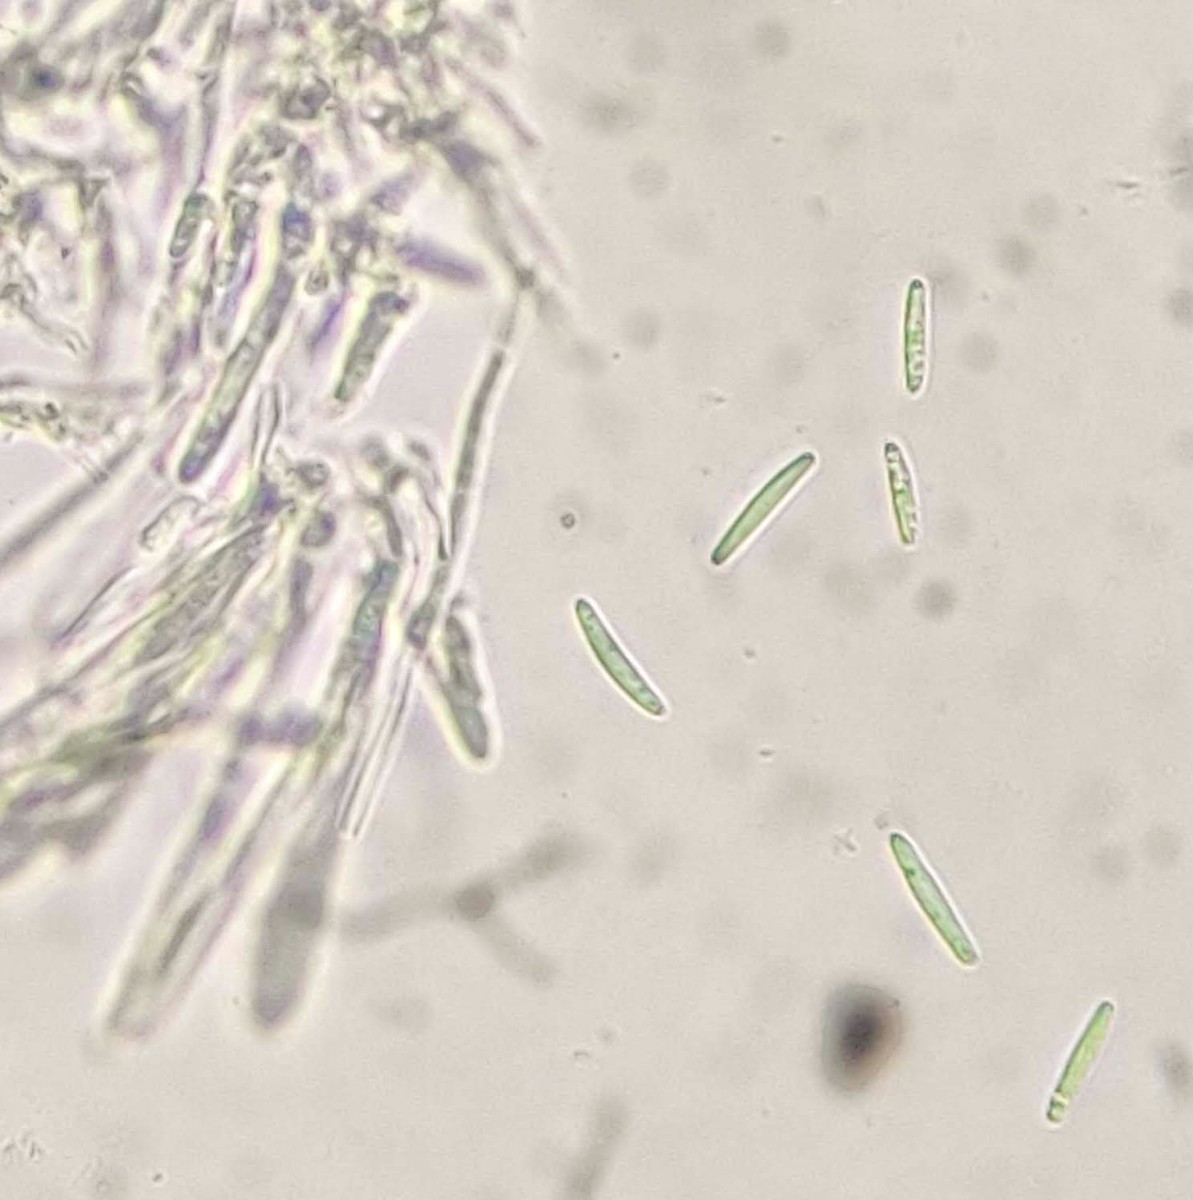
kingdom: Fungi
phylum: Ascomycota
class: Leotiomycetes
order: Helotiales
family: Solenopeziaceae
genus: Lasiobelonium
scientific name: Lasiobelonium variegatum
